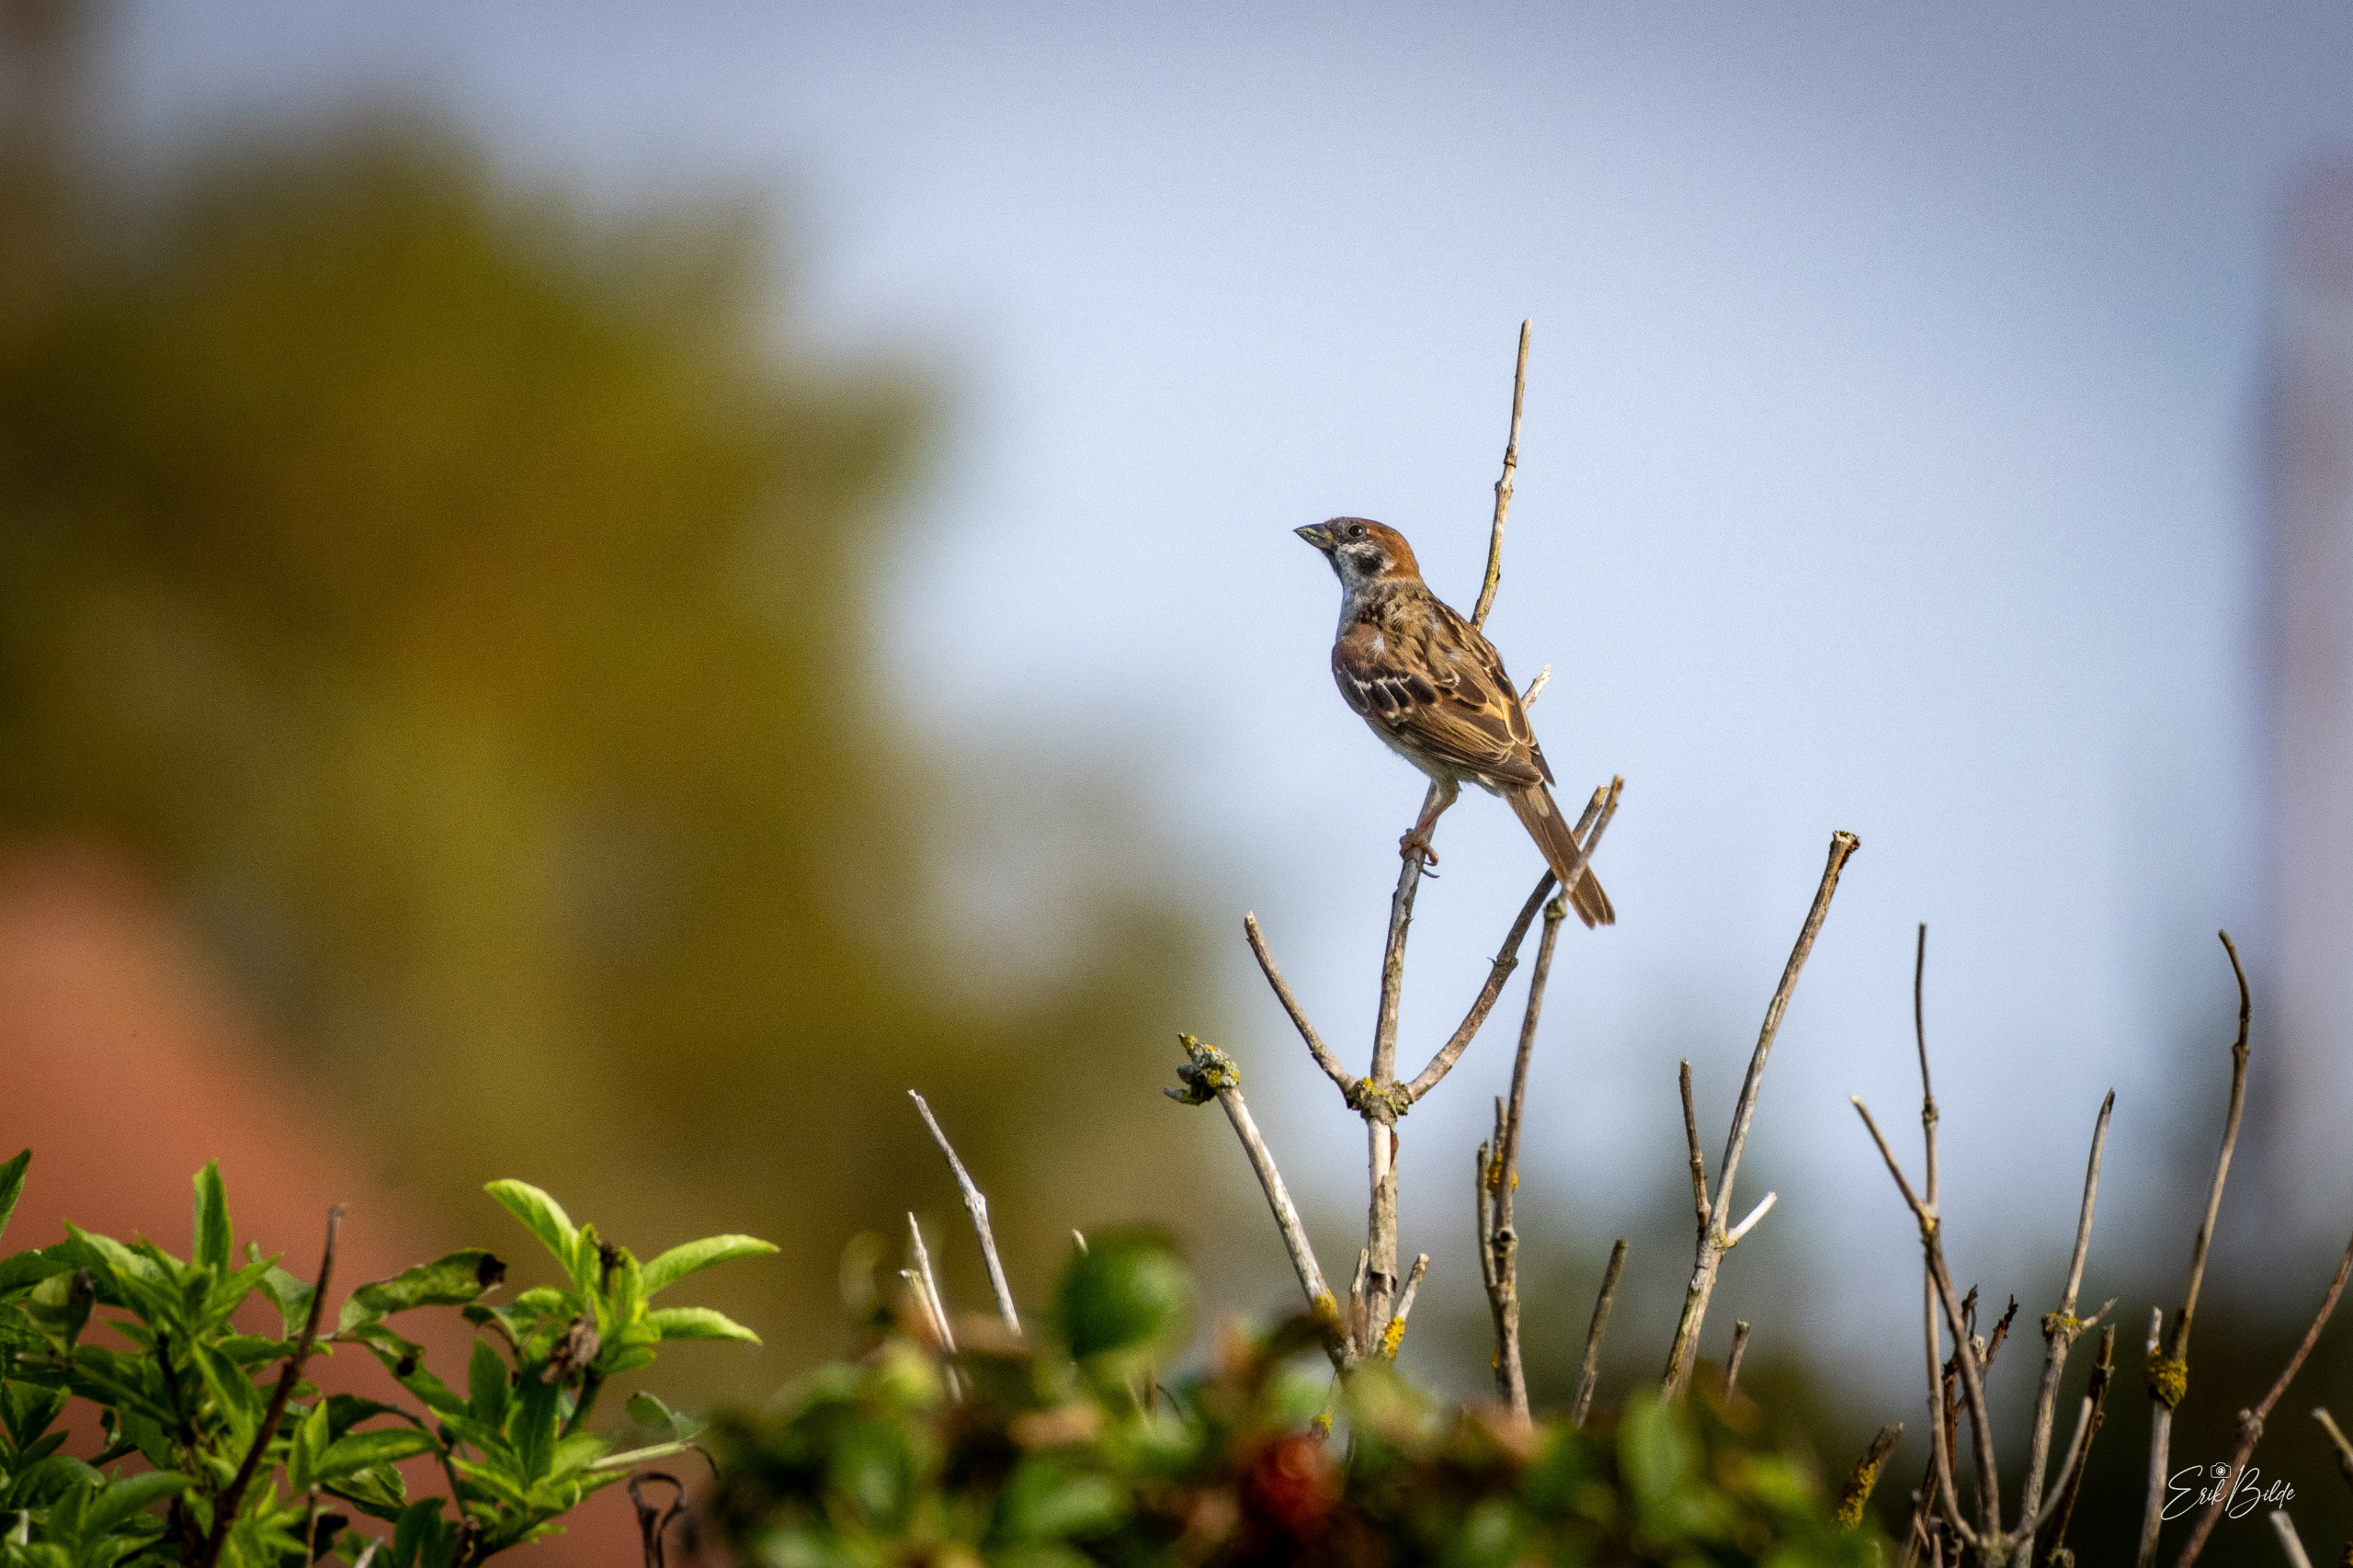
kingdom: Animalia
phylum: Chordata
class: Aves
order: Passeriformes
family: Passeridae
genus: Passer
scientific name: Passer montanus
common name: Skovspurv
